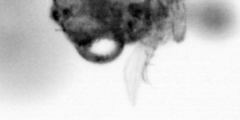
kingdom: Animalia
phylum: Arthropoda
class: Copepoda
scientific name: Copepoda
